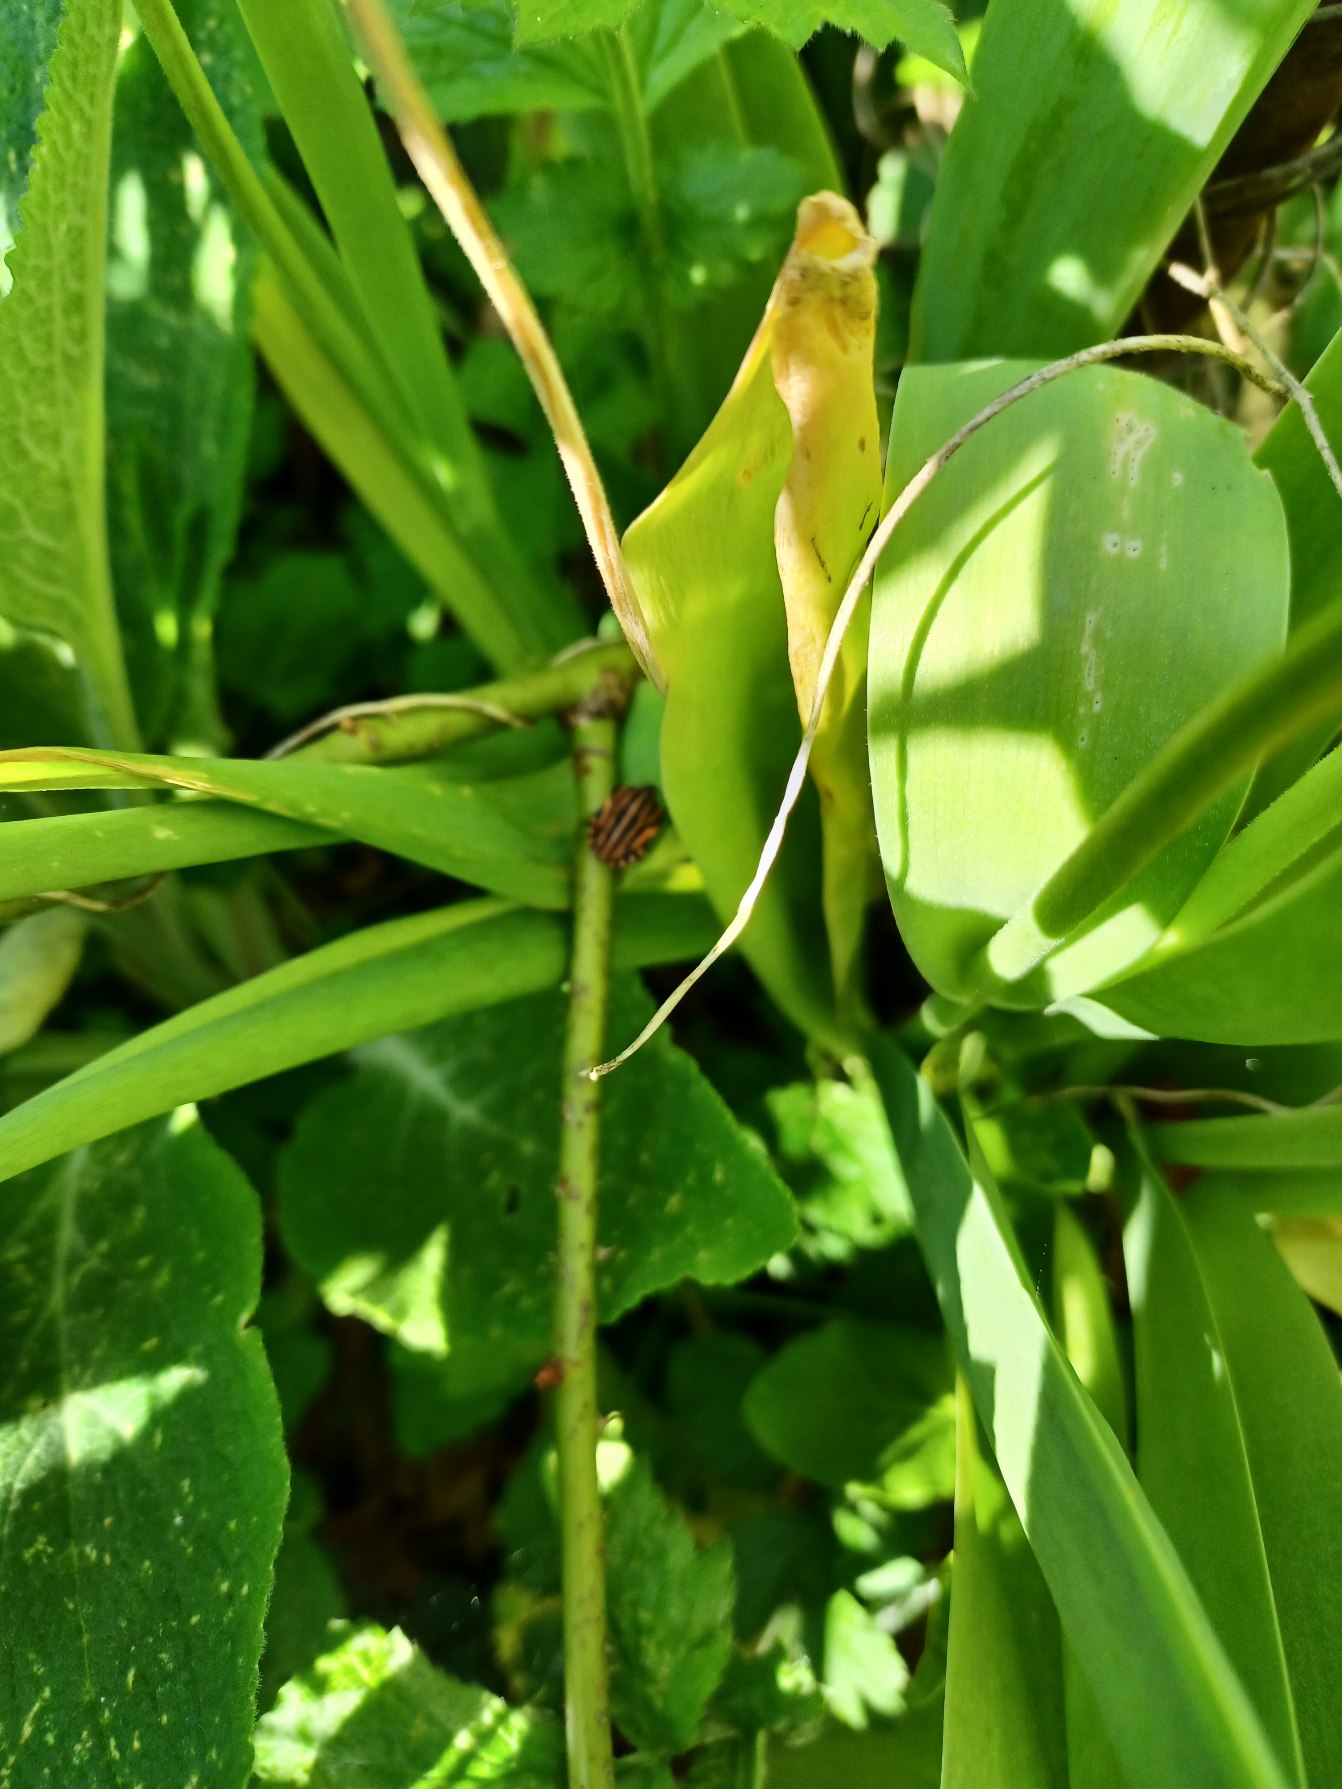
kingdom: Animalia
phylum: Arthropoda
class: Insecta
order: Hemiptera
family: Pentatomidae
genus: Graphosoma
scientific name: Graphosoma italicum
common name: Stribetæge
